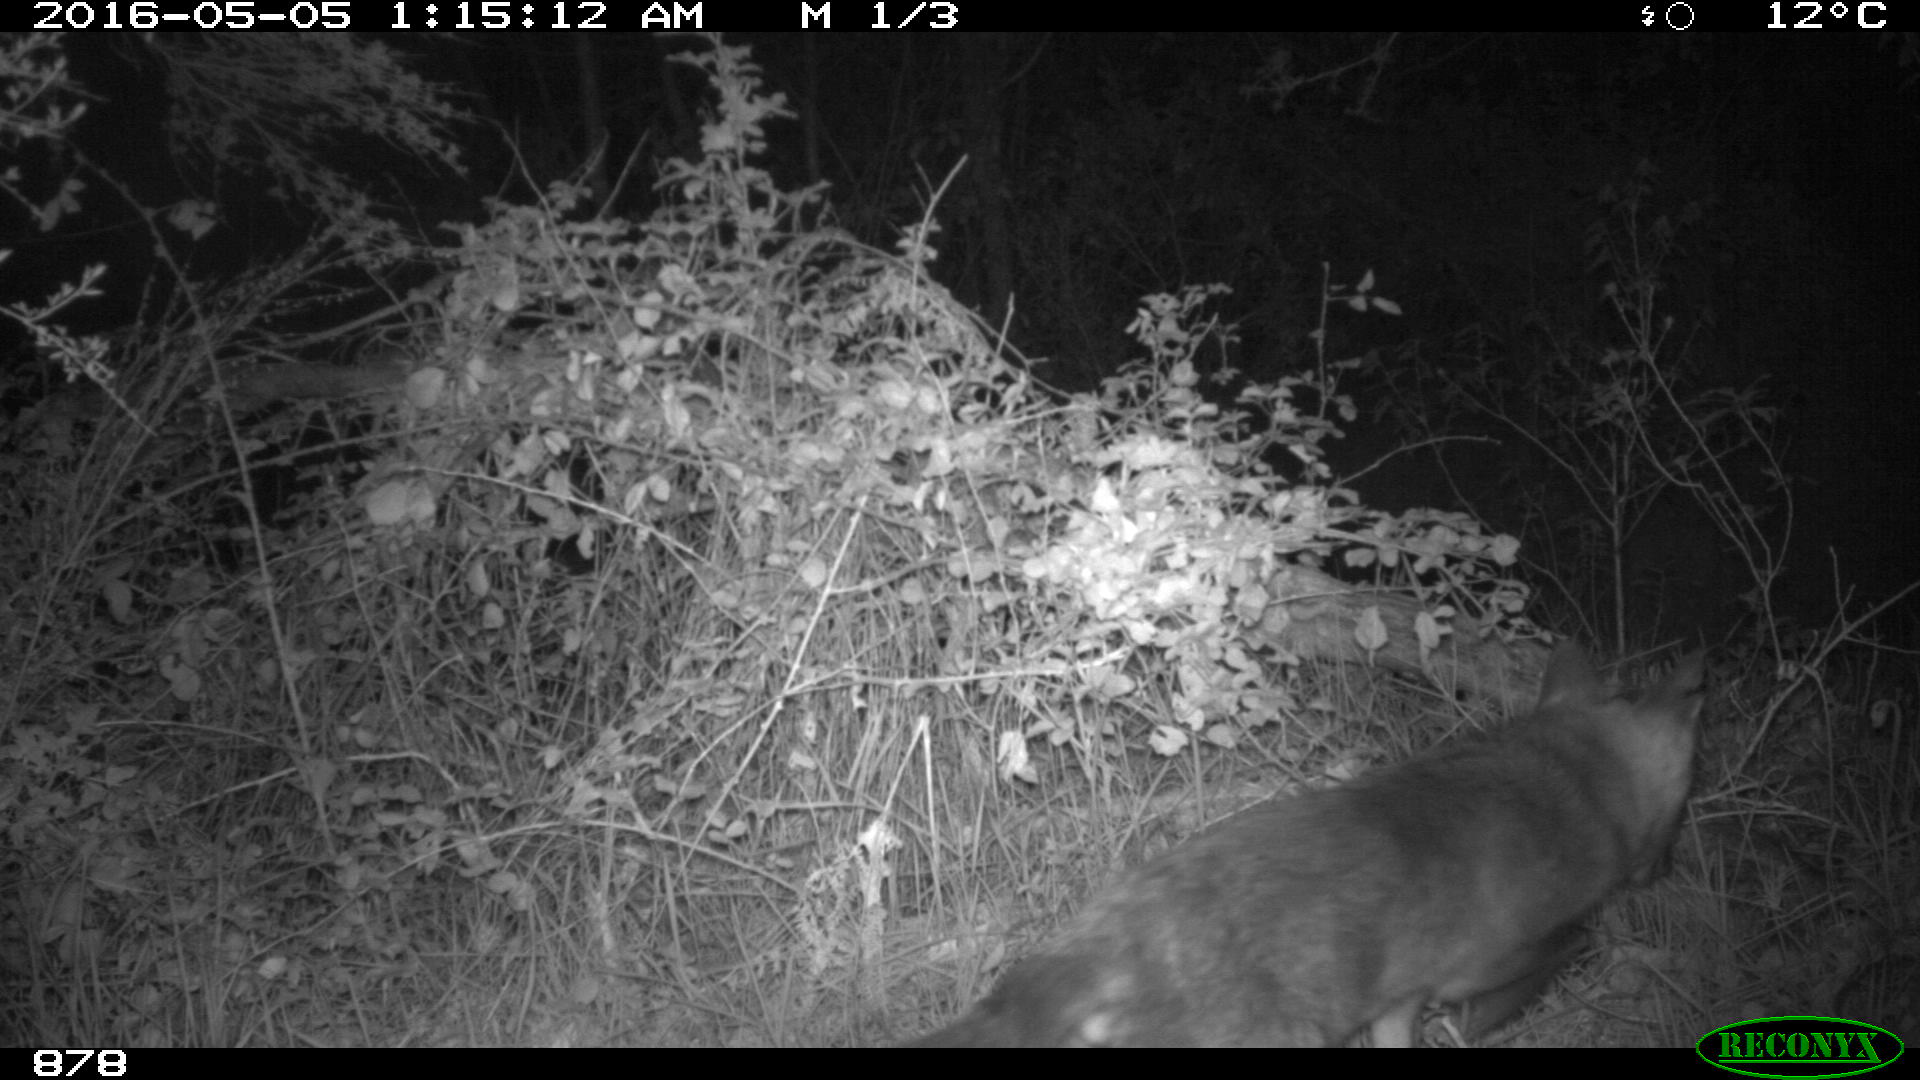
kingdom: Animalia
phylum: Chordata
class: Mammalia
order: Carnivora
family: Canidae
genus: Vulpes
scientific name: Vulpes vulpes
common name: Red fox
